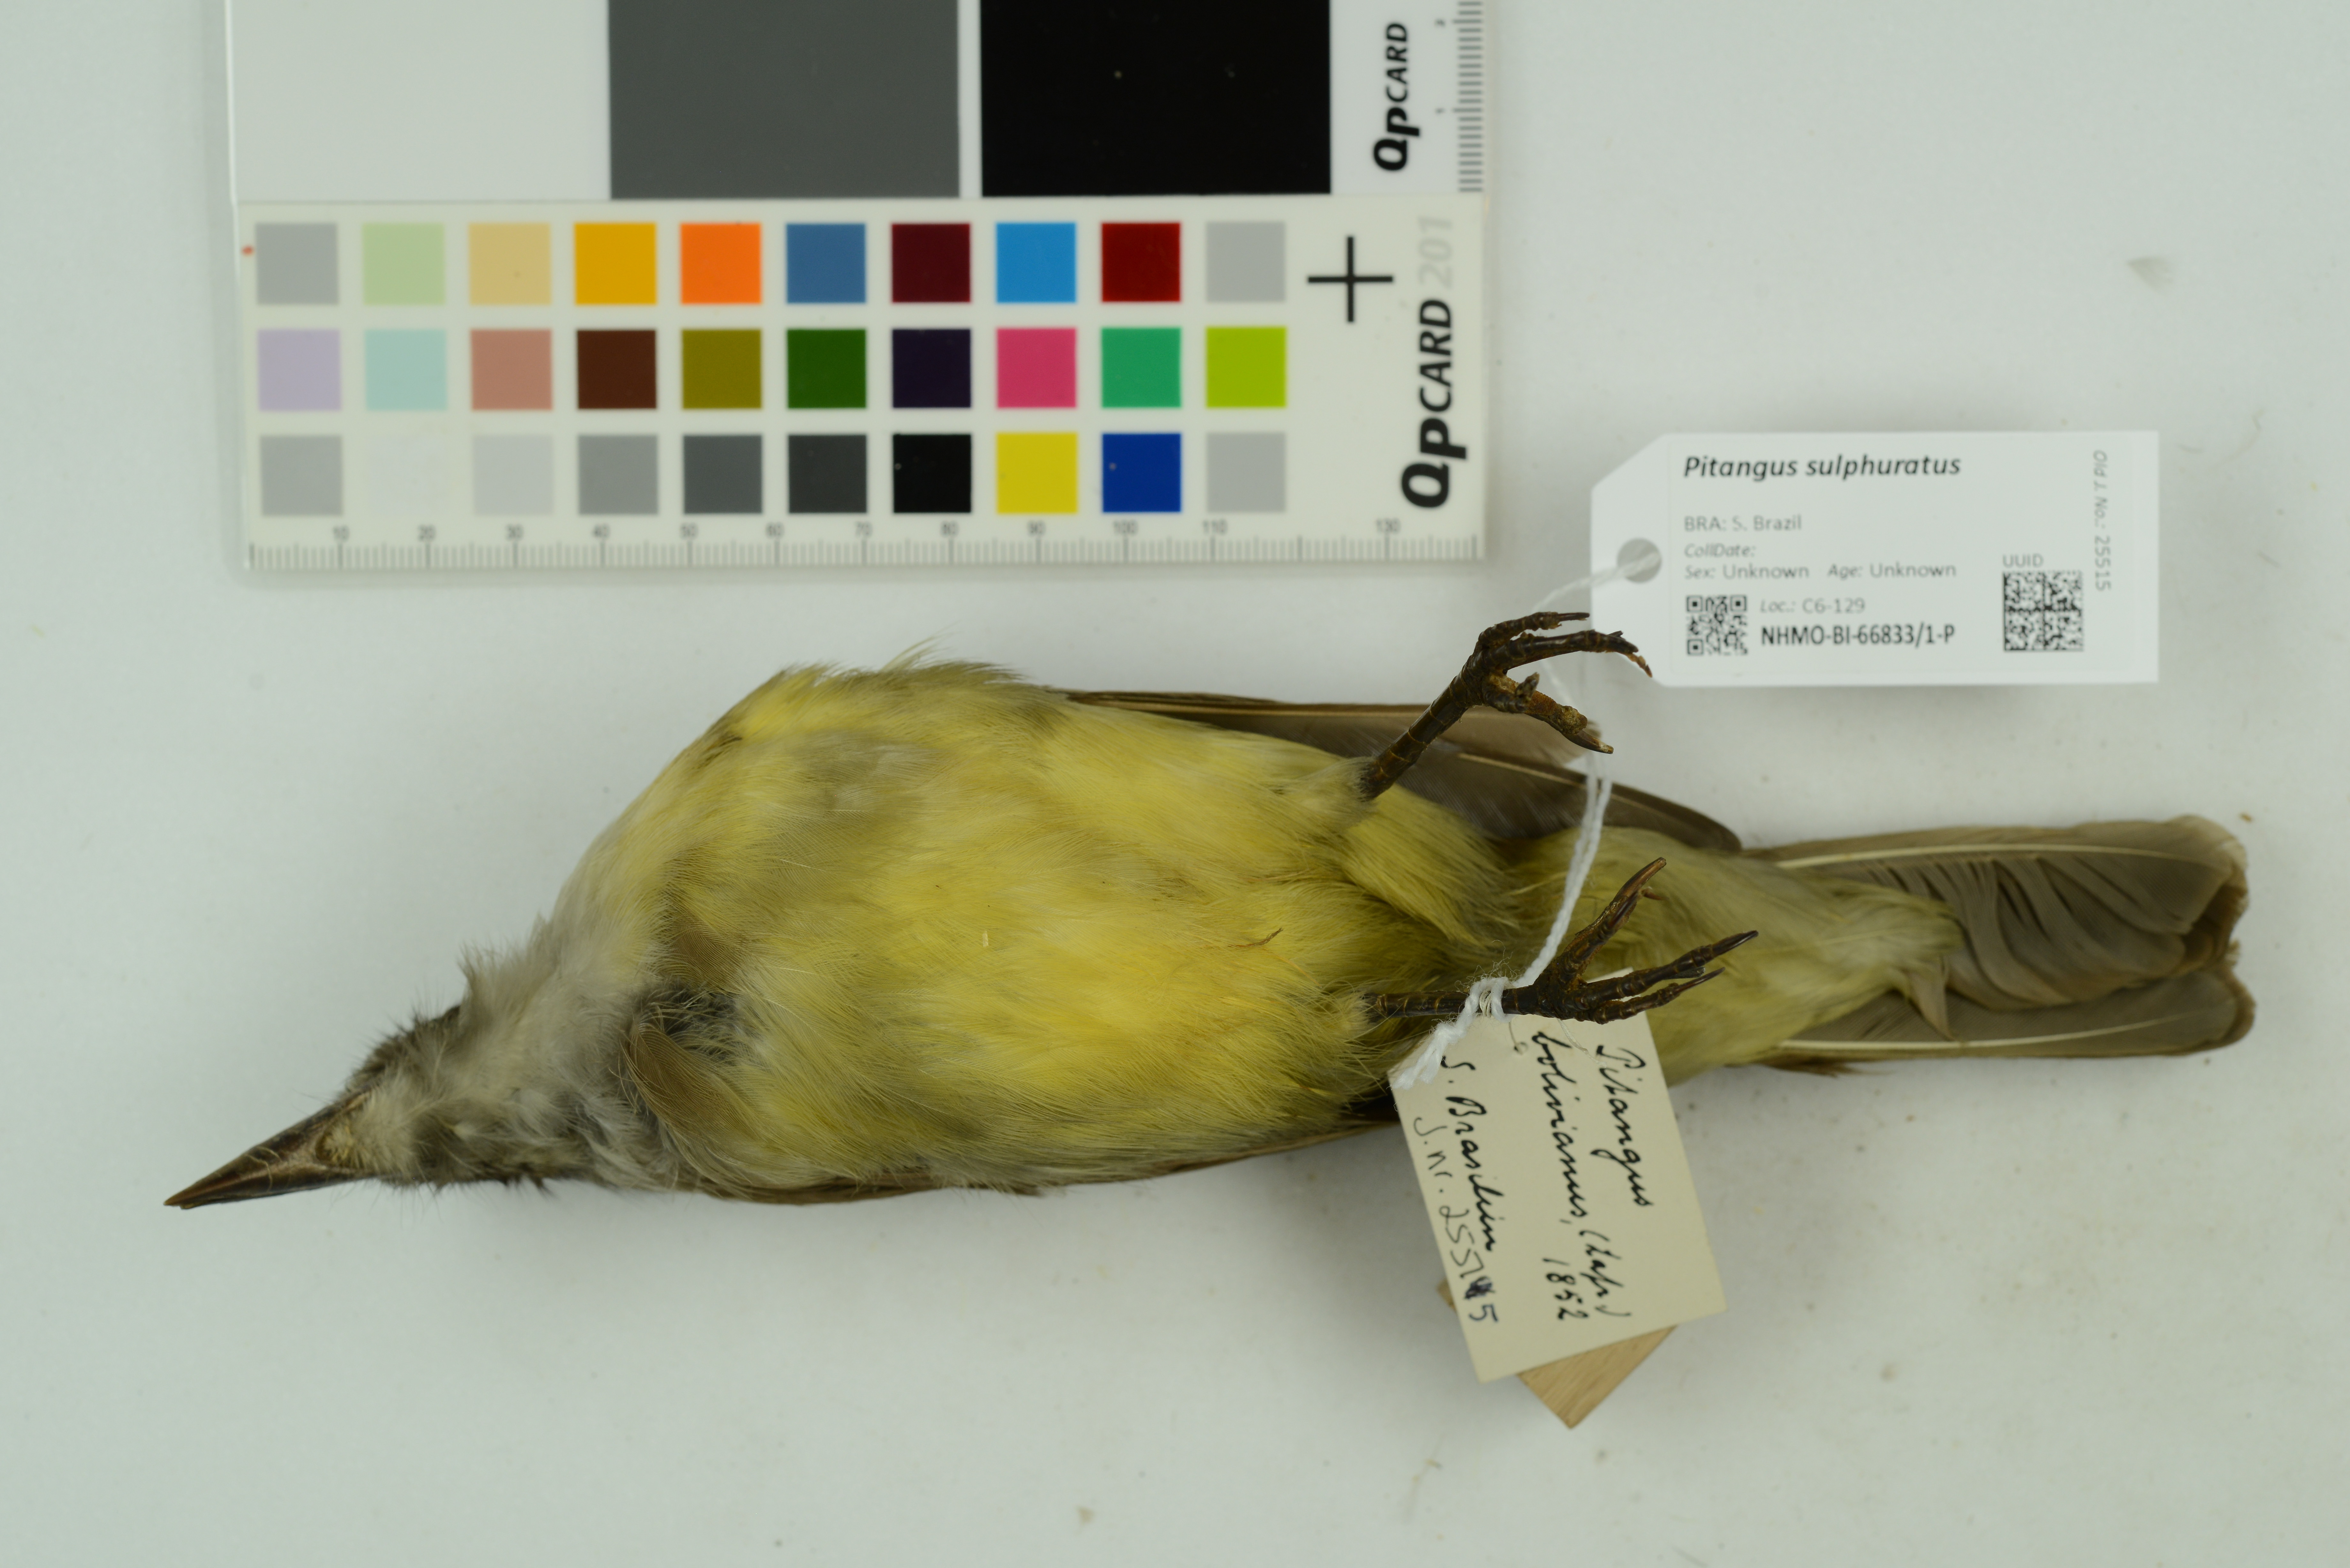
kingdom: Animalia
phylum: Chordata
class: Aves
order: Passeriformes
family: Tyrannidae
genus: Pitangus
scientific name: Pitangus sulphuratus
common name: Great kiskadee
